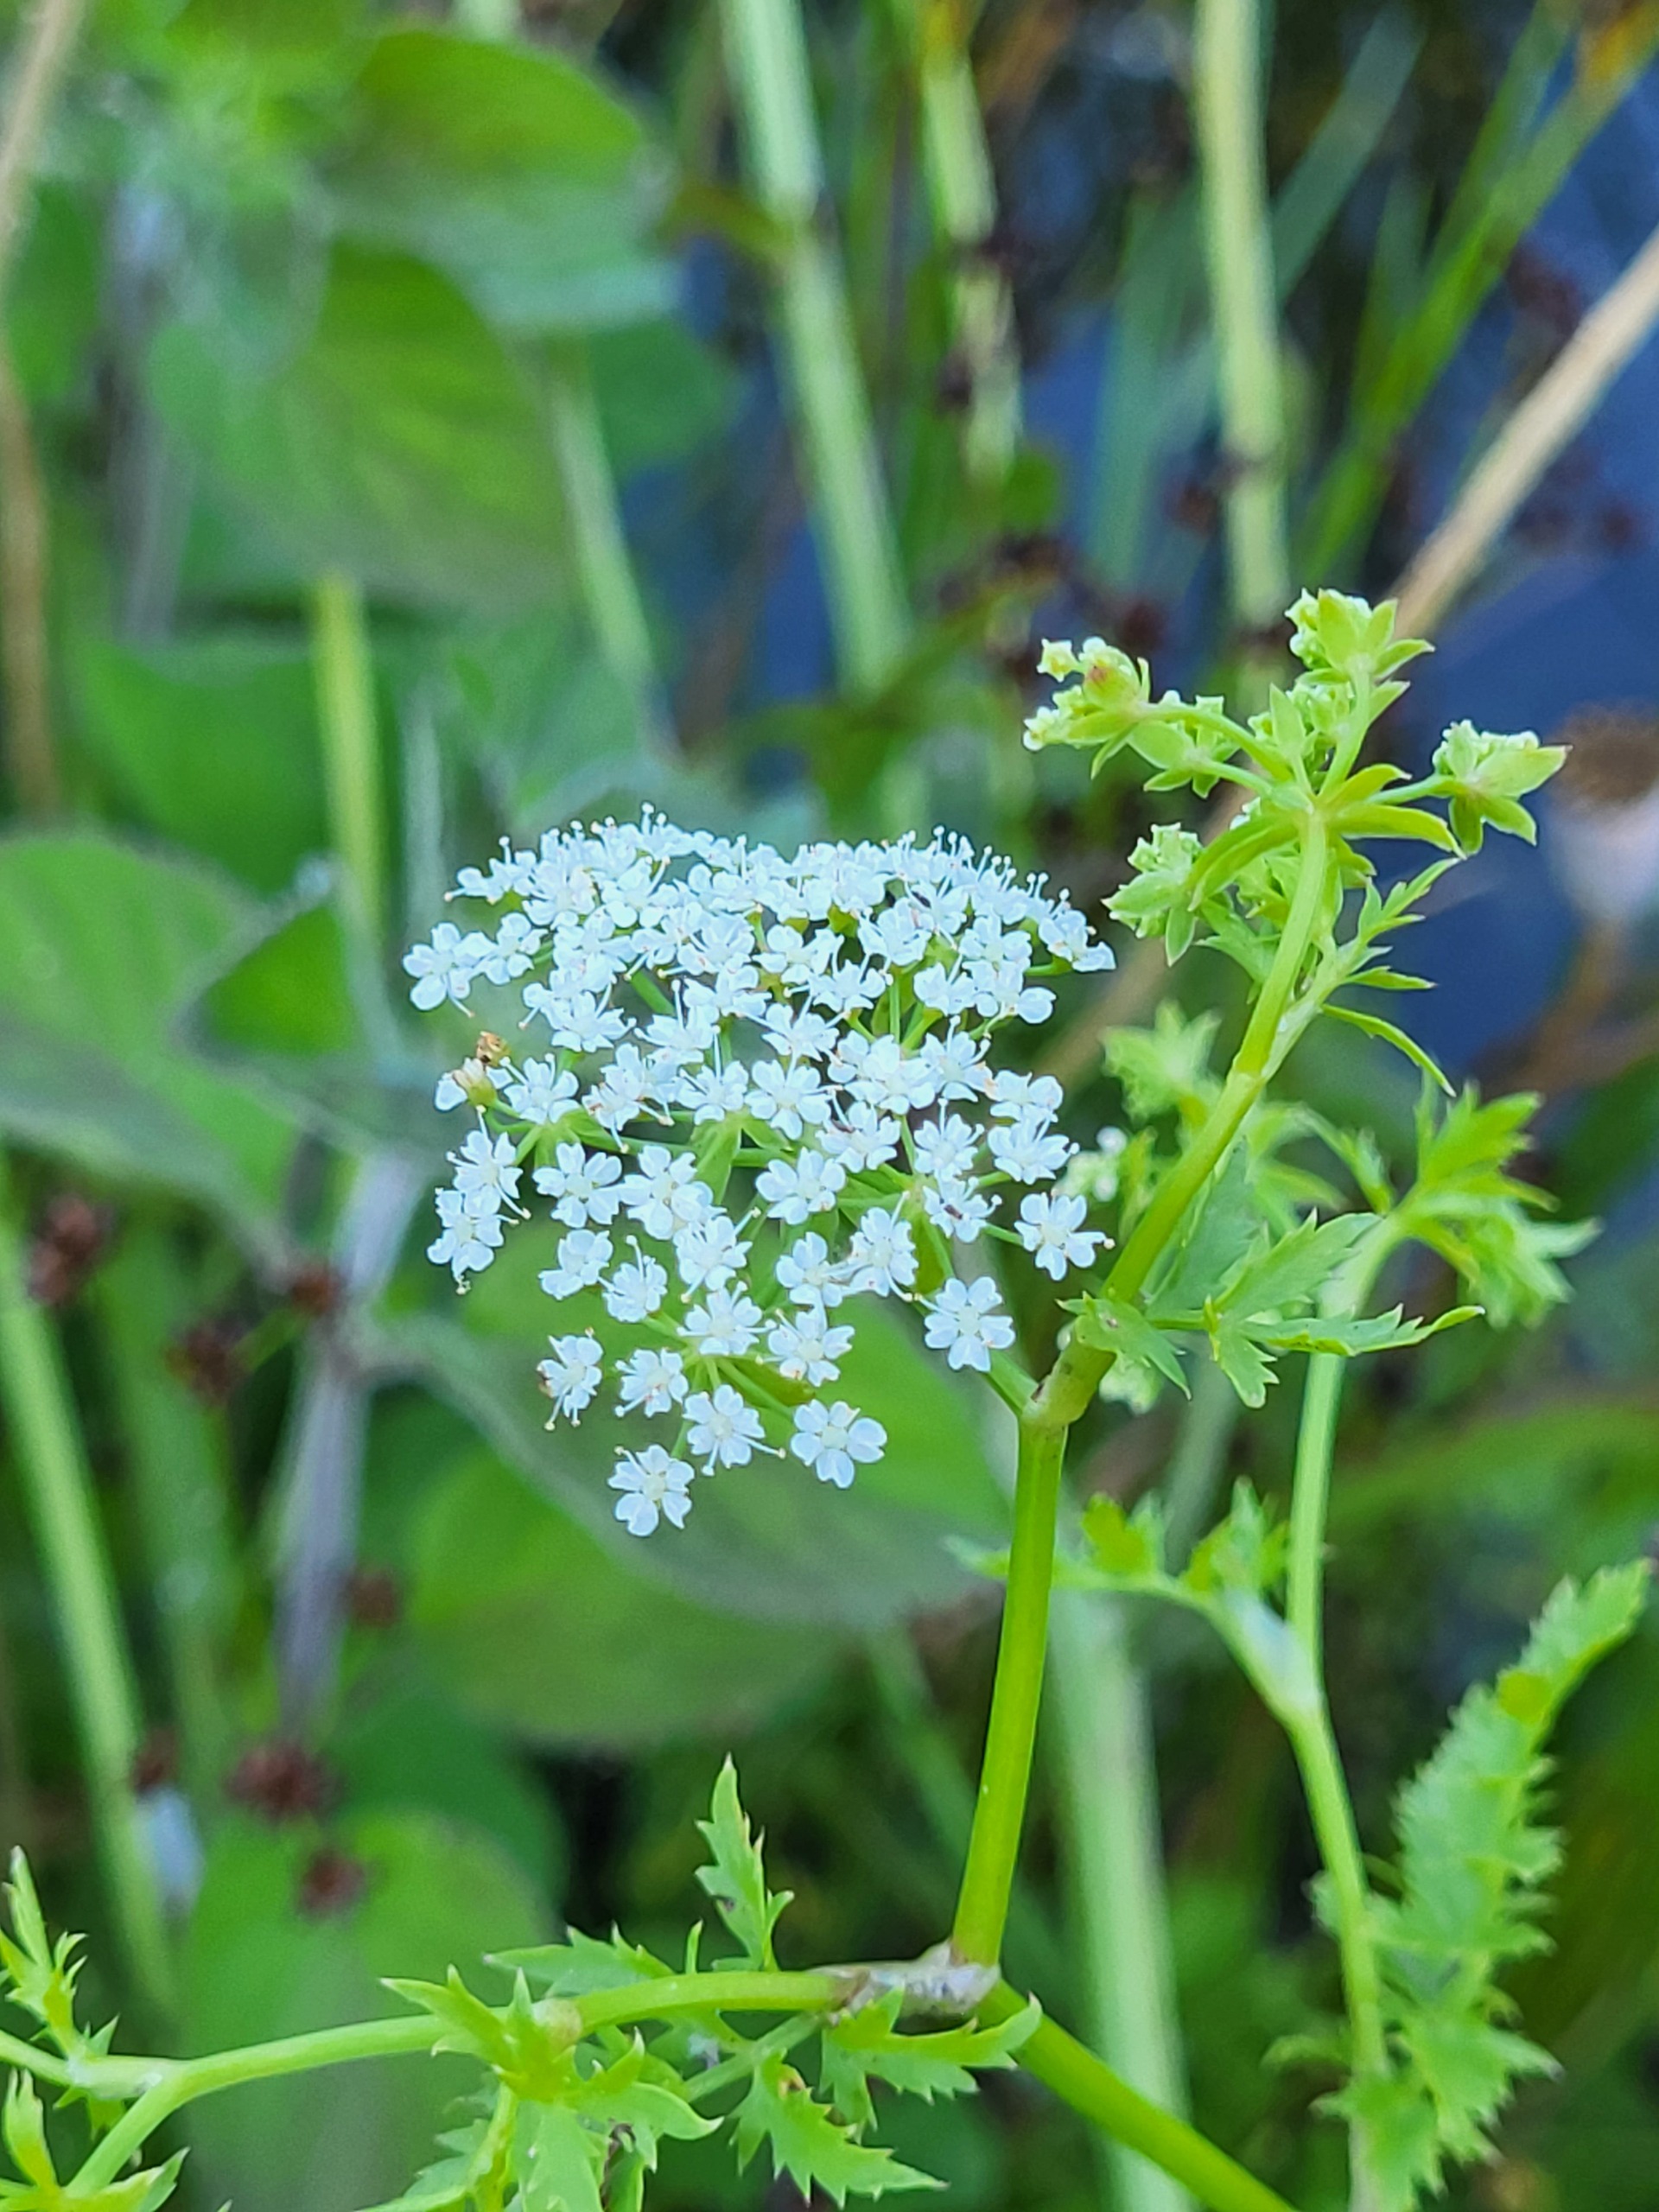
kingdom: Plantae
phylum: Tracheophyta
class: Magnoliopsida
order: Apiales
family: Apiaceae
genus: Berula
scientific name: Berula erecta
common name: Sideskærm
